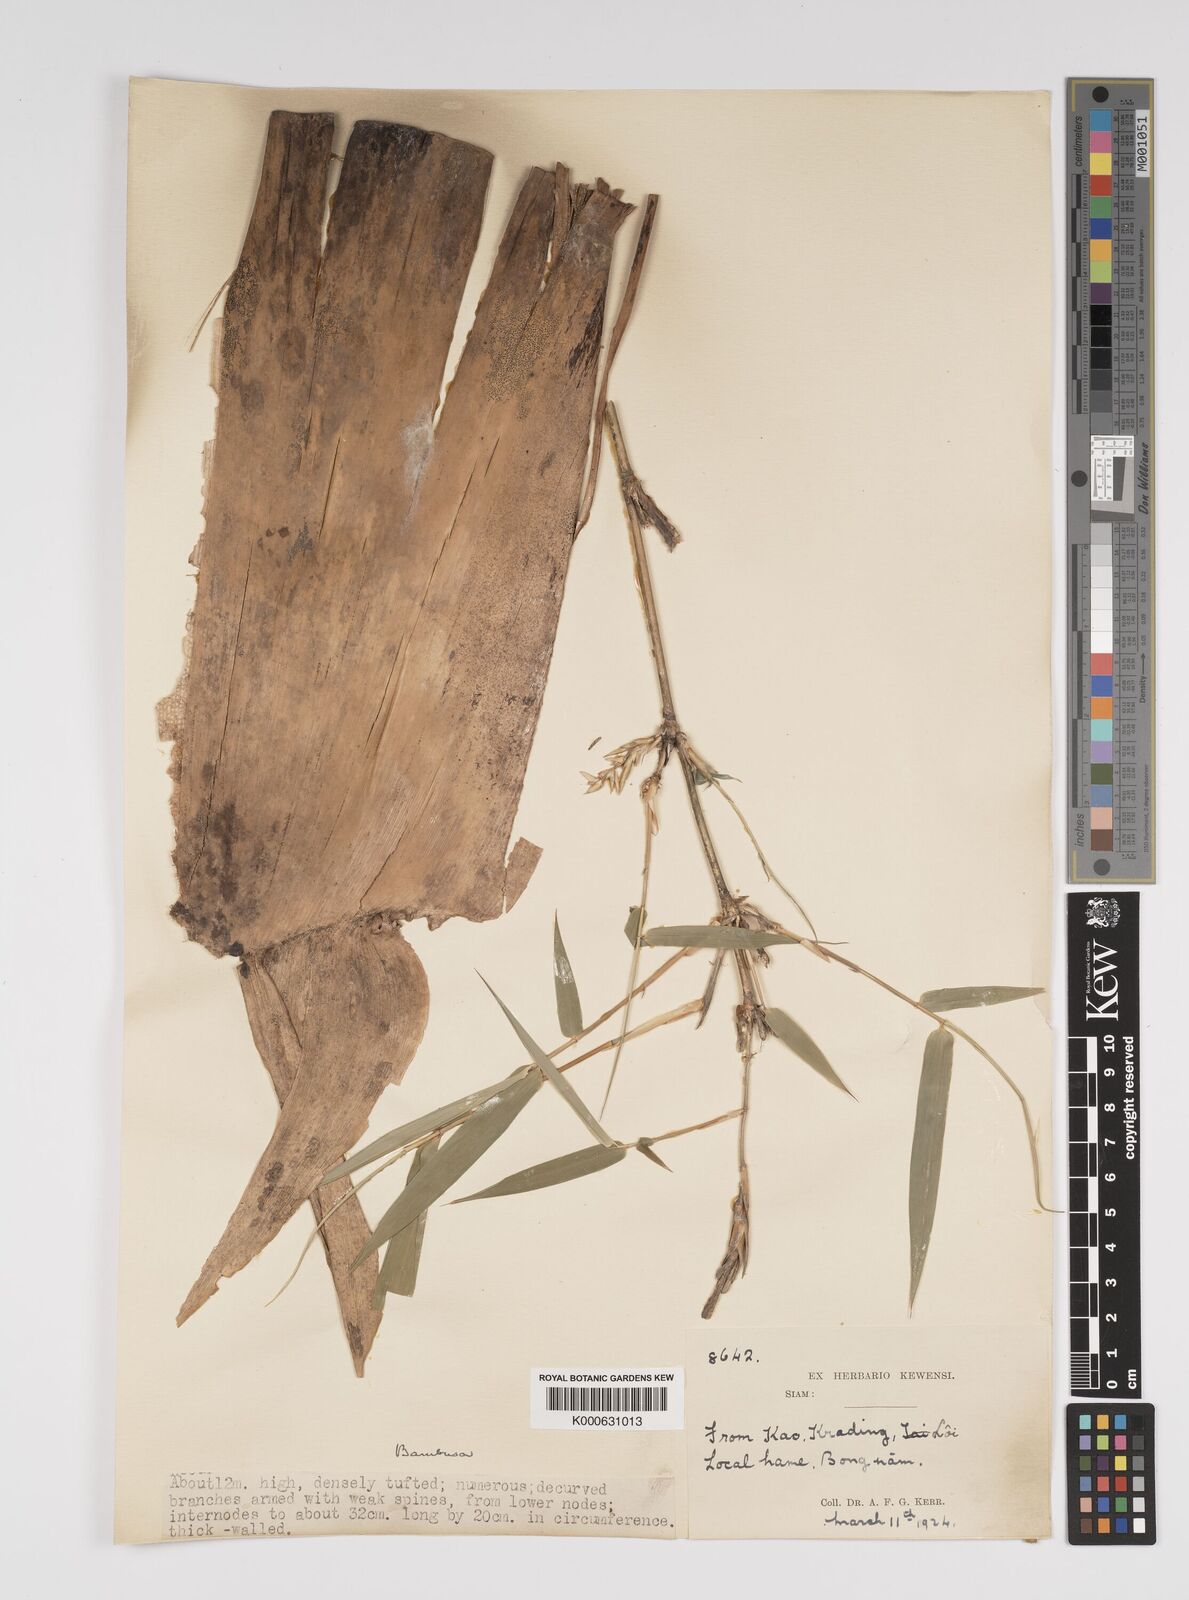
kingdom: Plantae
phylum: Tracheophyta
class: Liliopsida
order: Poales
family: Poaceae
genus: Bambusa
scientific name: Bambusa
